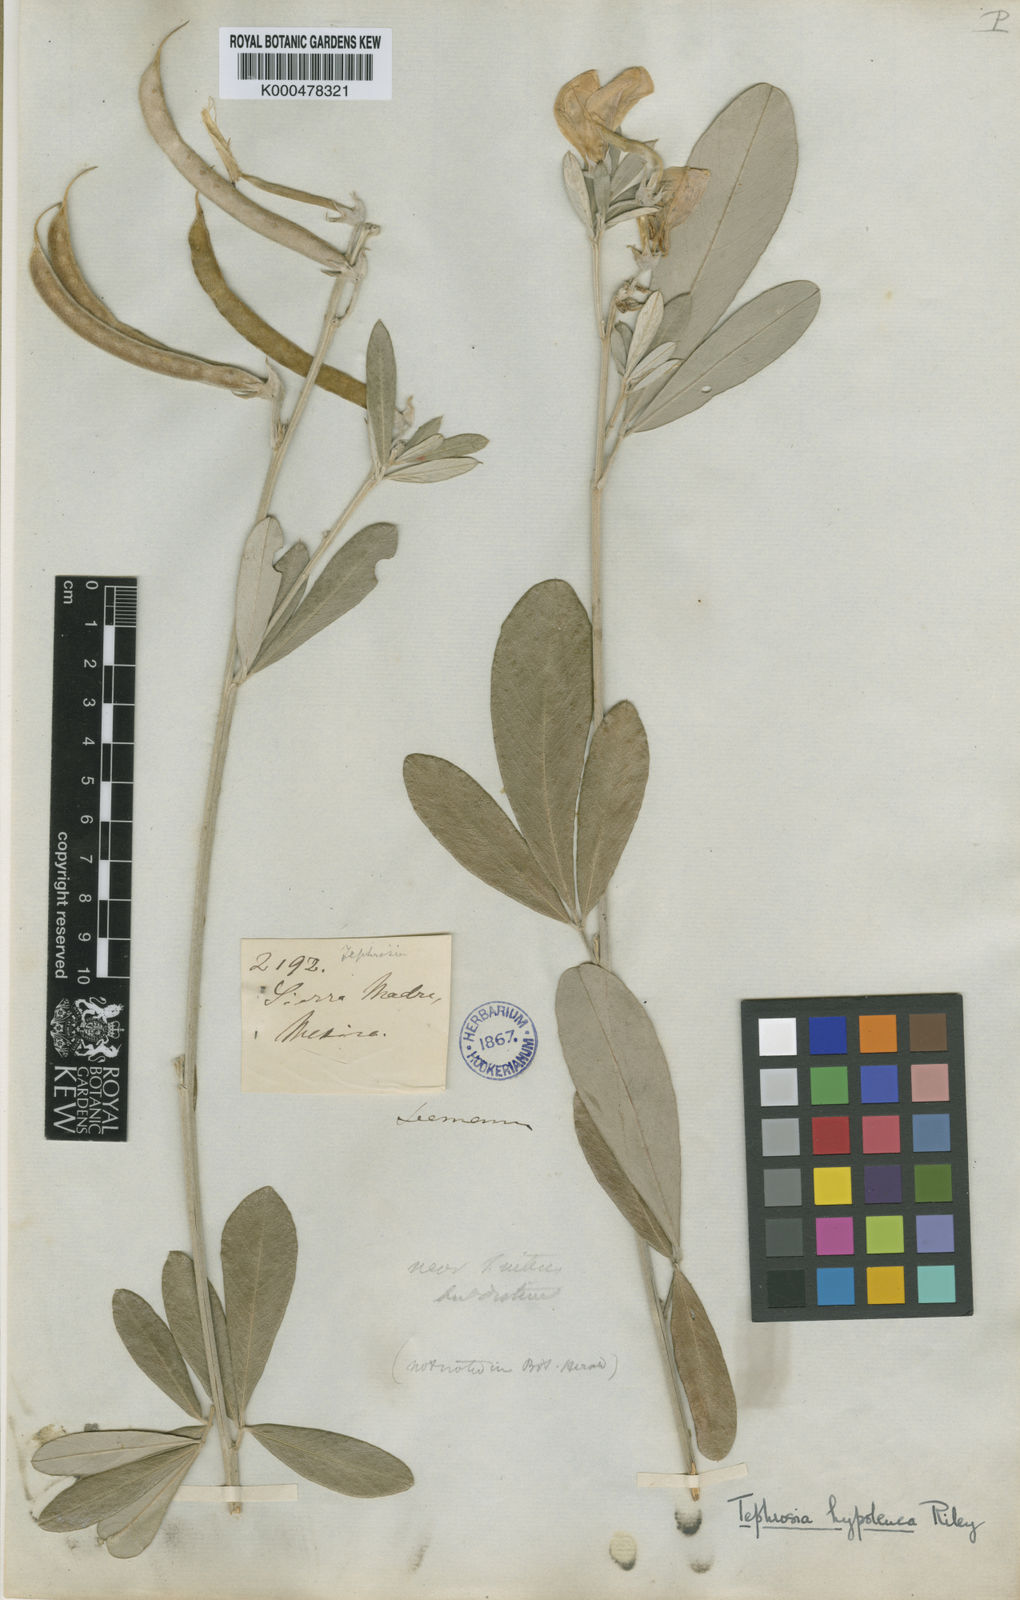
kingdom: Plantae
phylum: Tracheophyta
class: Magnoliopsida
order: Fabales
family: Fabaceae
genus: Tephrosia
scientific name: Tephrosia hypoleuca
